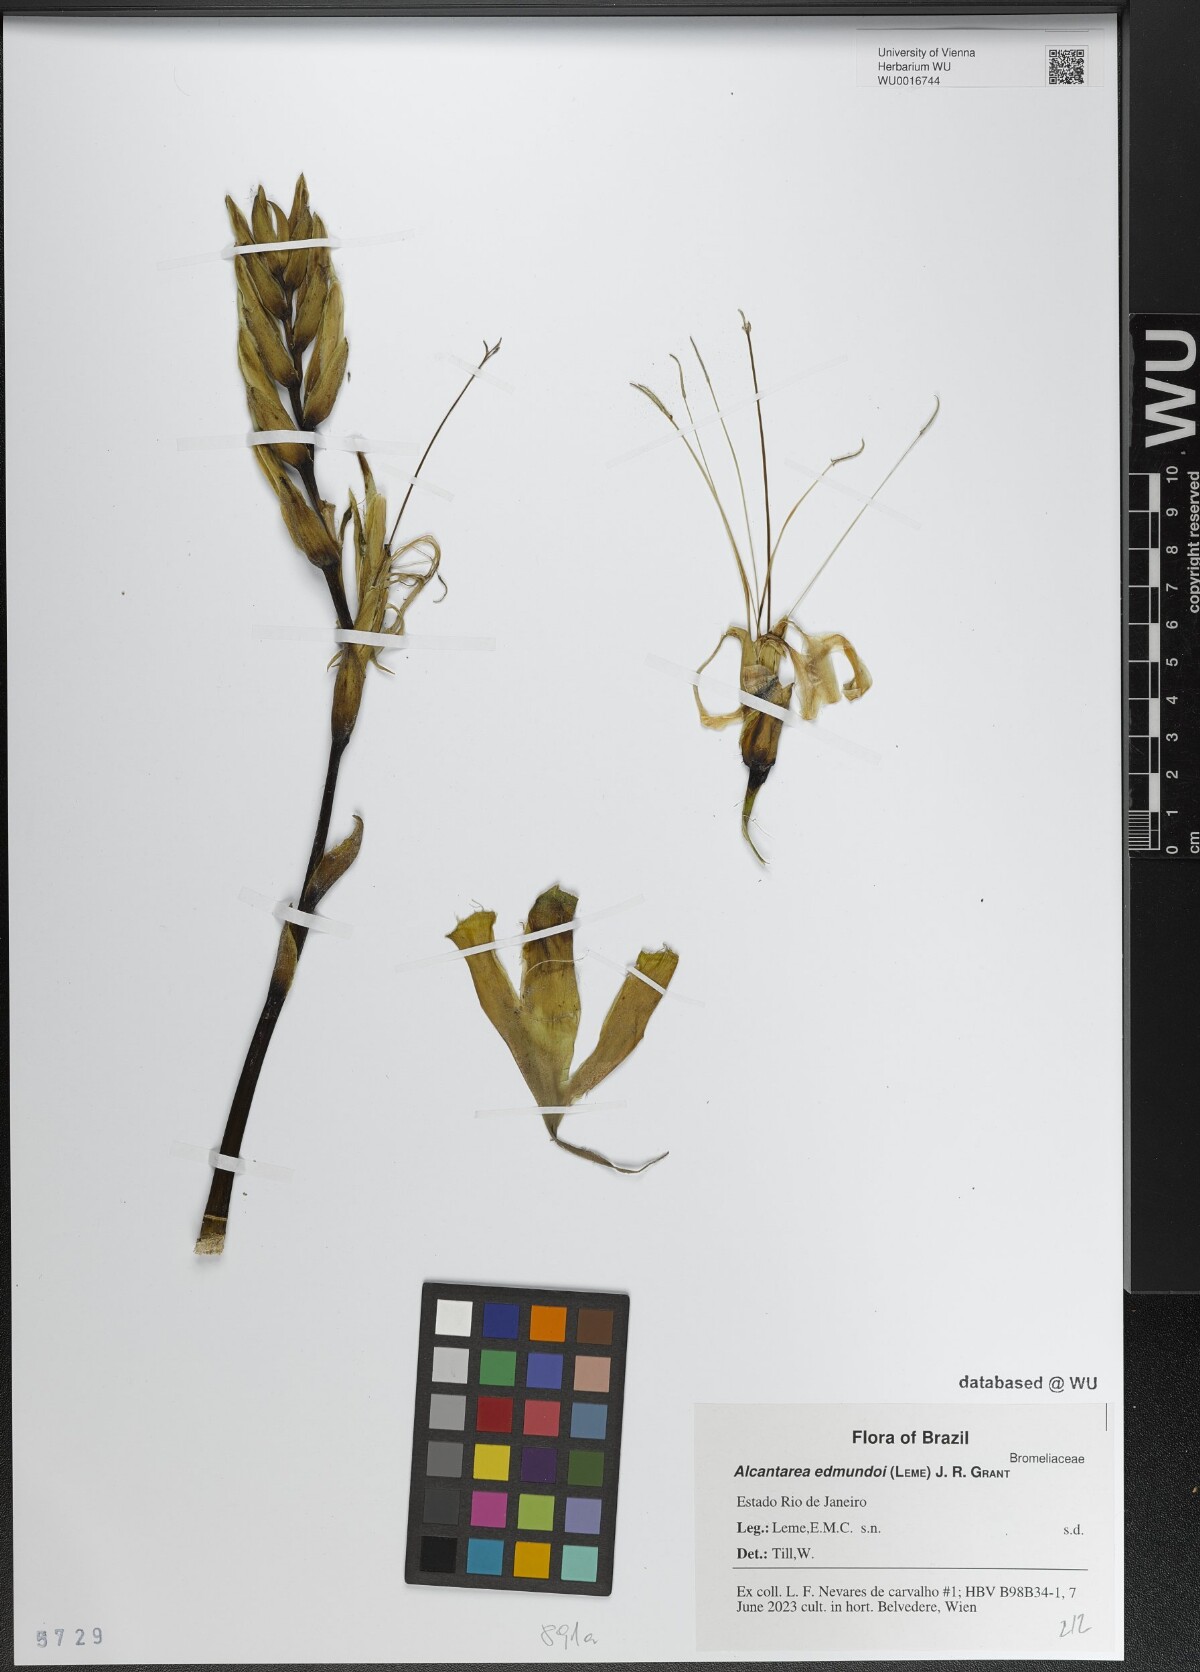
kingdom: Plantae
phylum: Tracheophyta
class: Liliopsida
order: Poales
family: Bromeliaceae
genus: Alcantarea
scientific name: Alcantarea regina
